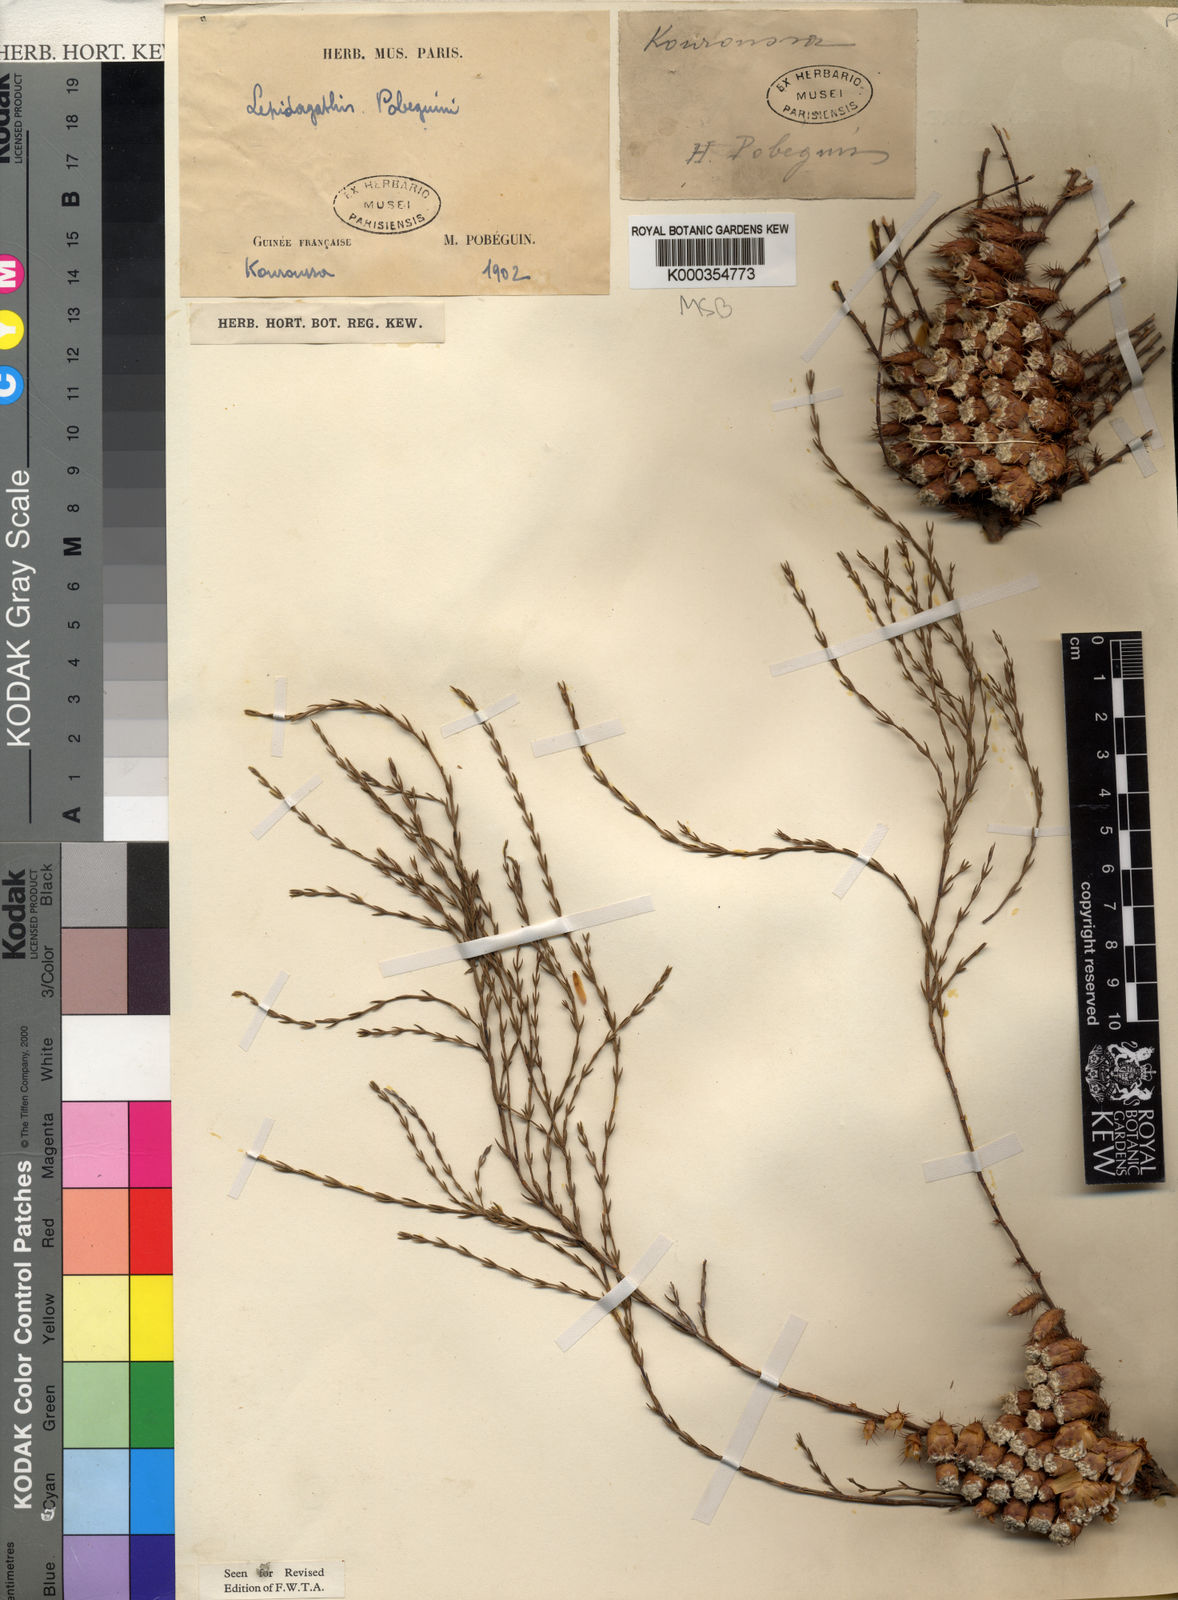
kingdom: Plantae
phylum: Tracheophyta
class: Magnoliopsida
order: Lamiales
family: Acanthaceae
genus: Lepidagathis
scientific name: Lepidagathis pobeguinii
